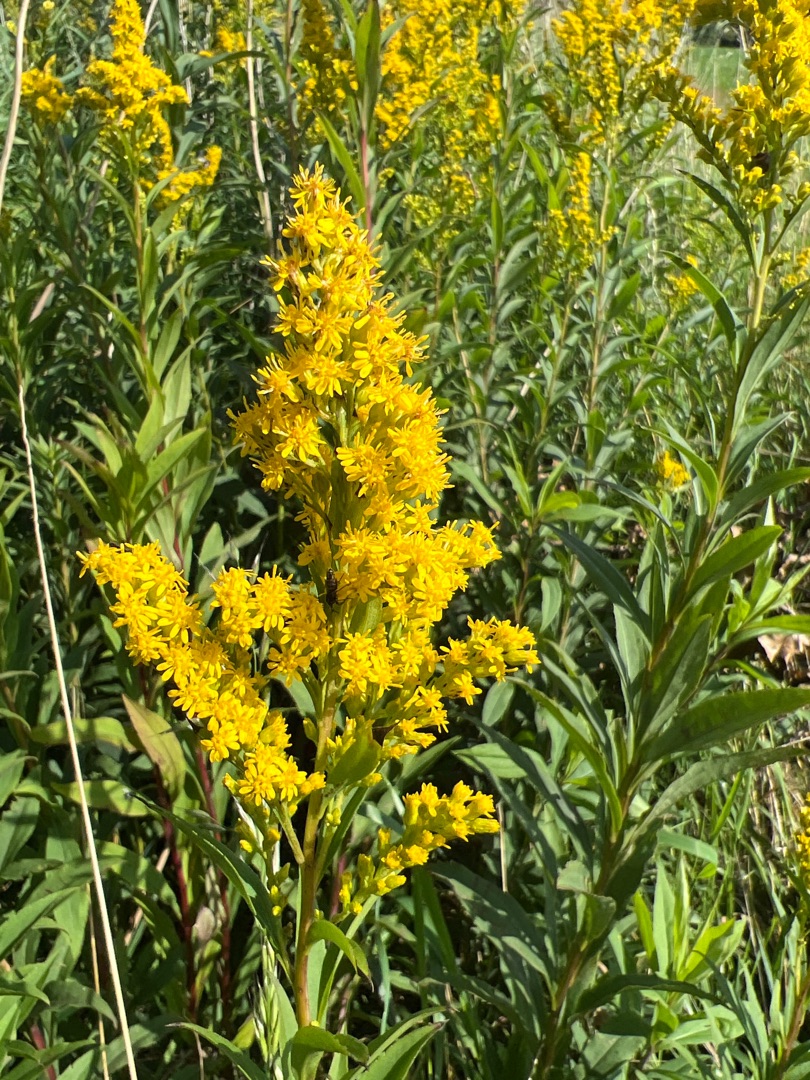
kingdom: Plantae
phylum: Tracheophyta
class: Magnoliopsida
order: Asterales
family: Asteraceae
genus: Solidago
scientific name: Solidago gigantea
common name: Sildig gyldenris
